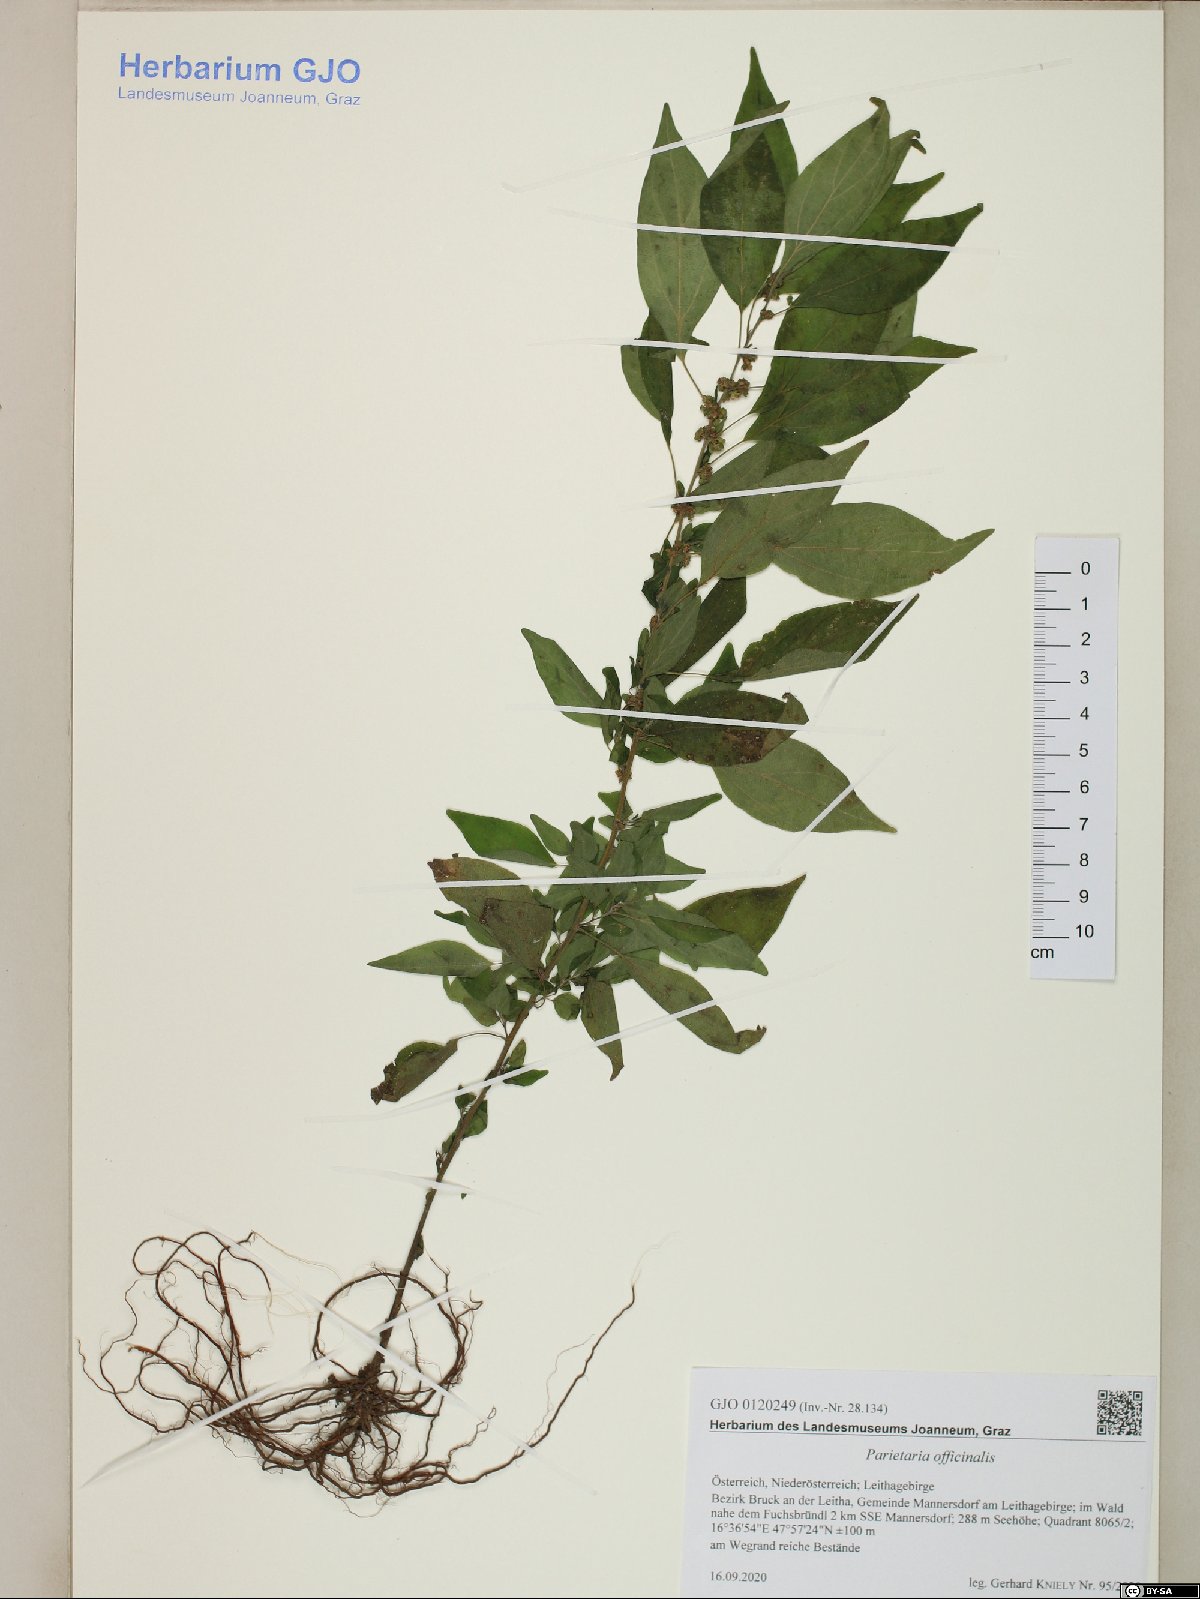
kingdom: Plantae
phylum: Tracheophyta
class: Magnoliopsida
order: Rosales
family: Urticaceae
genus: Parietaria
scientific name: Parietaria officinalis
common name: Eastern pellitory-of-the-wall
